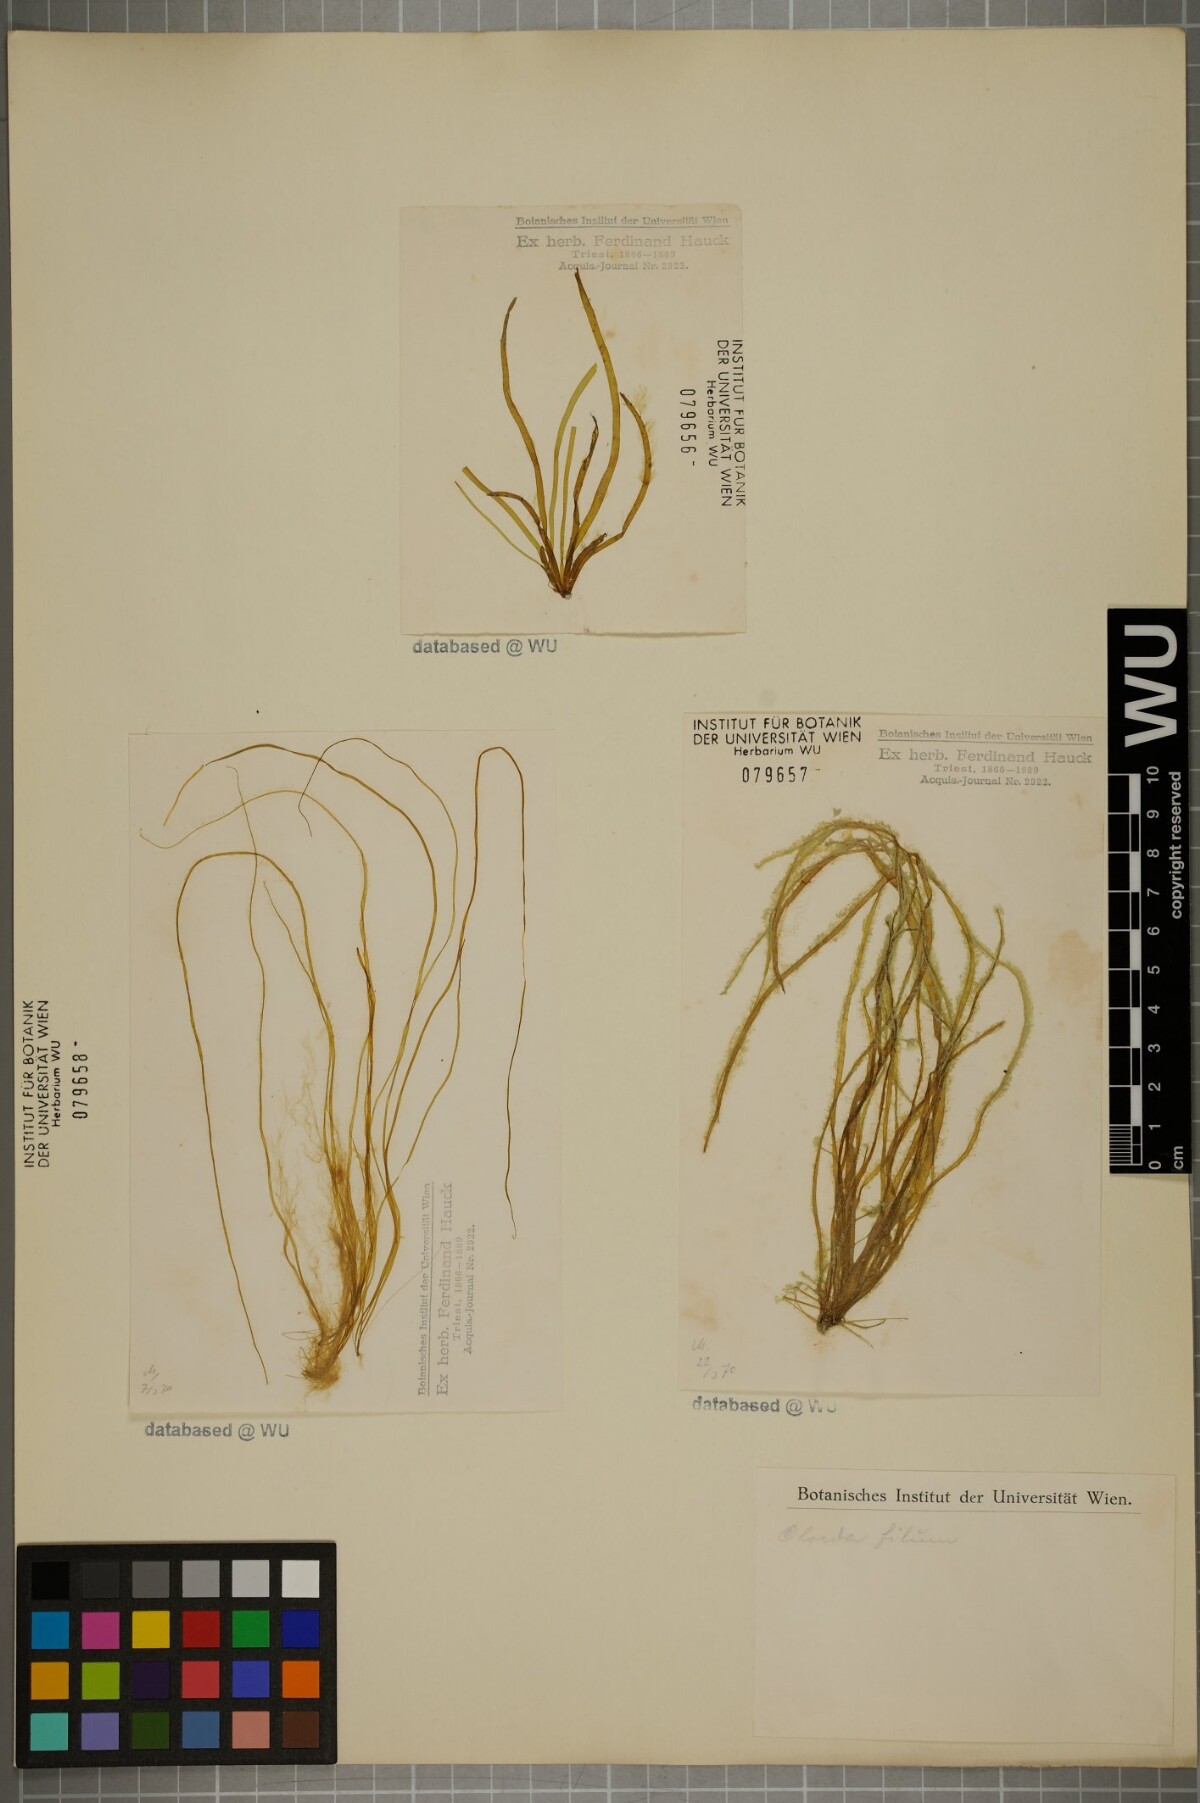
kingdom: Chromista
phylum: Ochrophyta
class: Phaeophyceae
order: Laminariales
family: Chordaceae
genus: Chorda
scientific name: Chorda filum
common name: Mermaid's tresses
